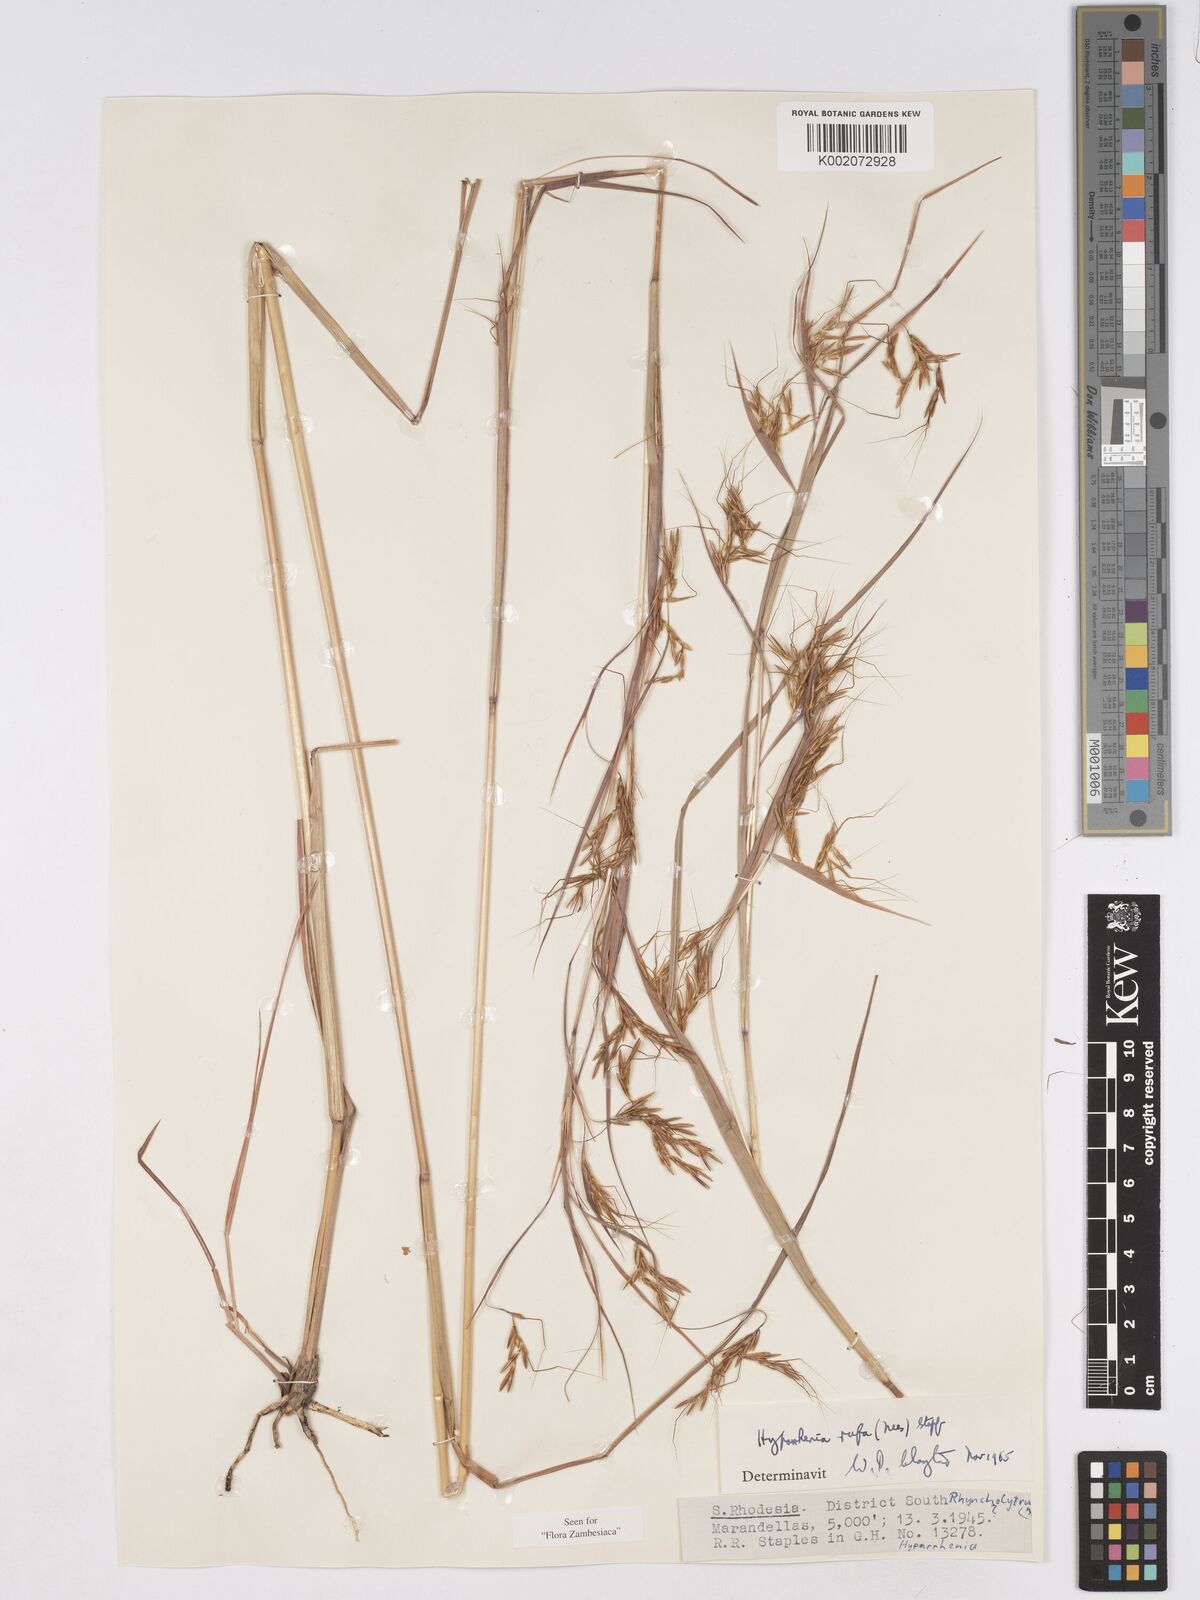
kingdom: Plantae
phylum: Tracheophyta
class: Liliopsida
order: Poales
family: Poaceae
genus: Hyparrhenia
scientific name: Hyparrhenia rufa
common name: Jaraguagrass
